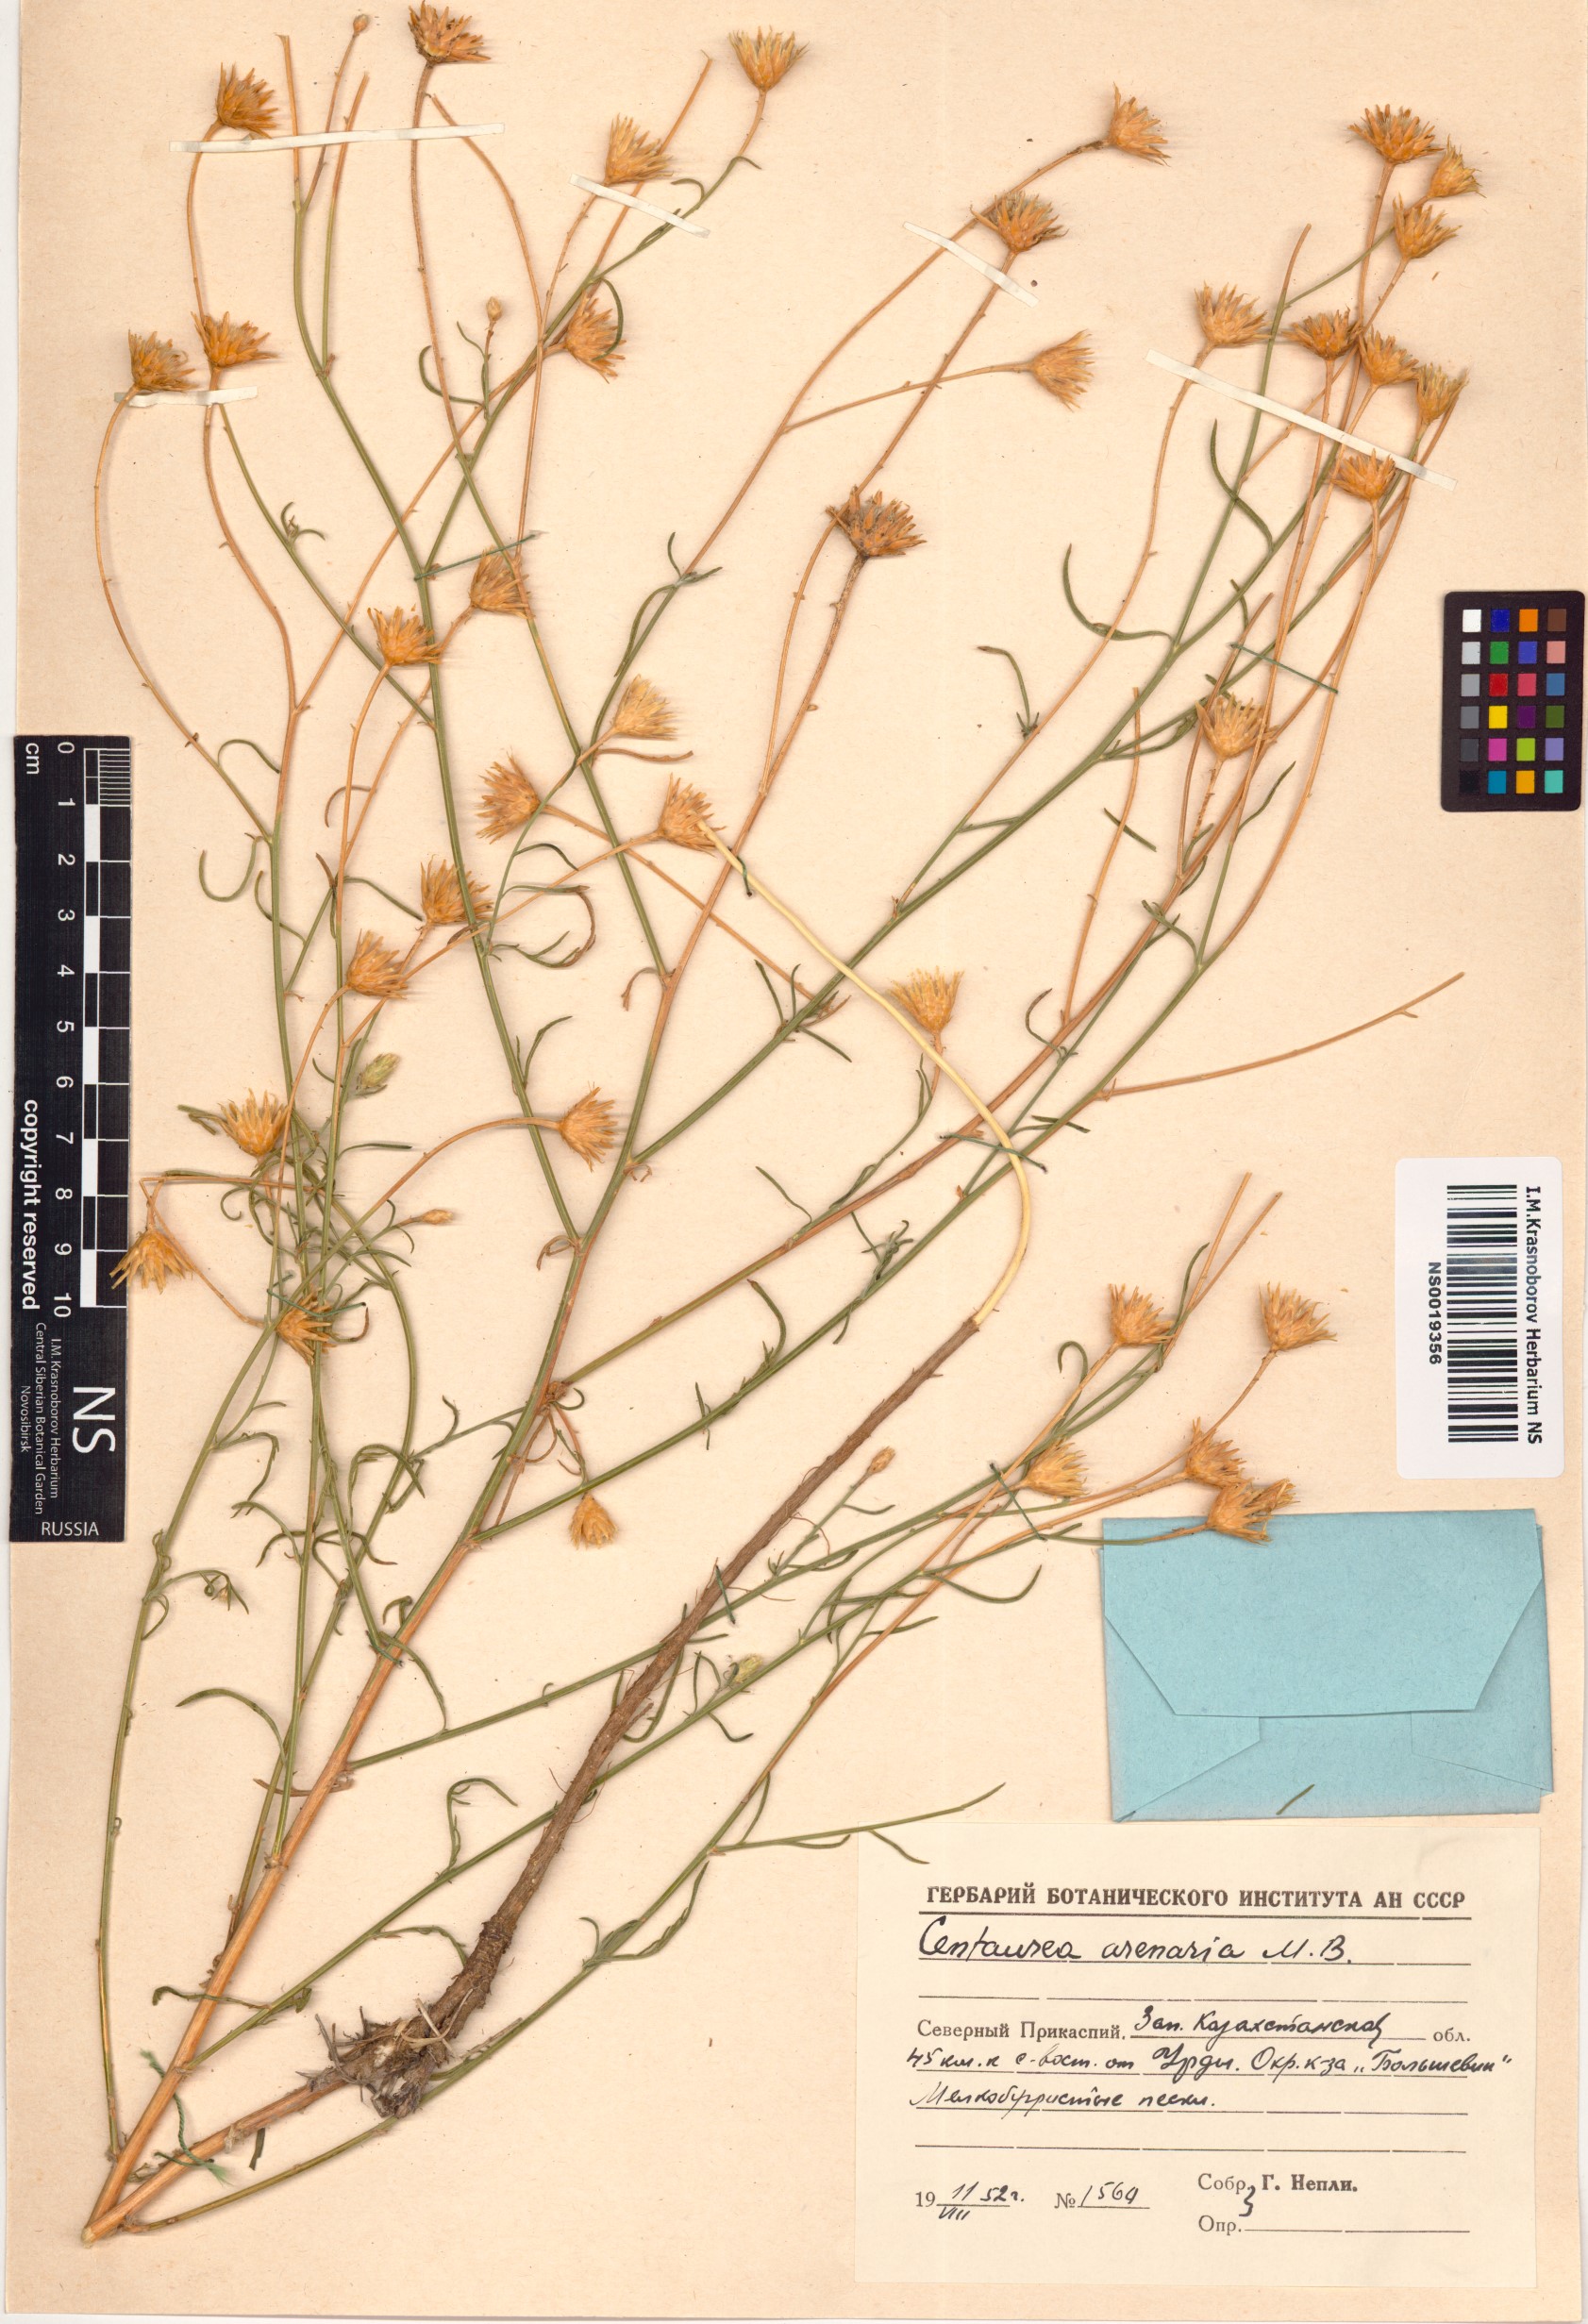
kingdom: Plantae
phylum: Tracheophyta
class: Magnoliopsida
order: Asterales
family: Asteraceae
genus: Centaurea
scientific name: Centaurea arenaria
